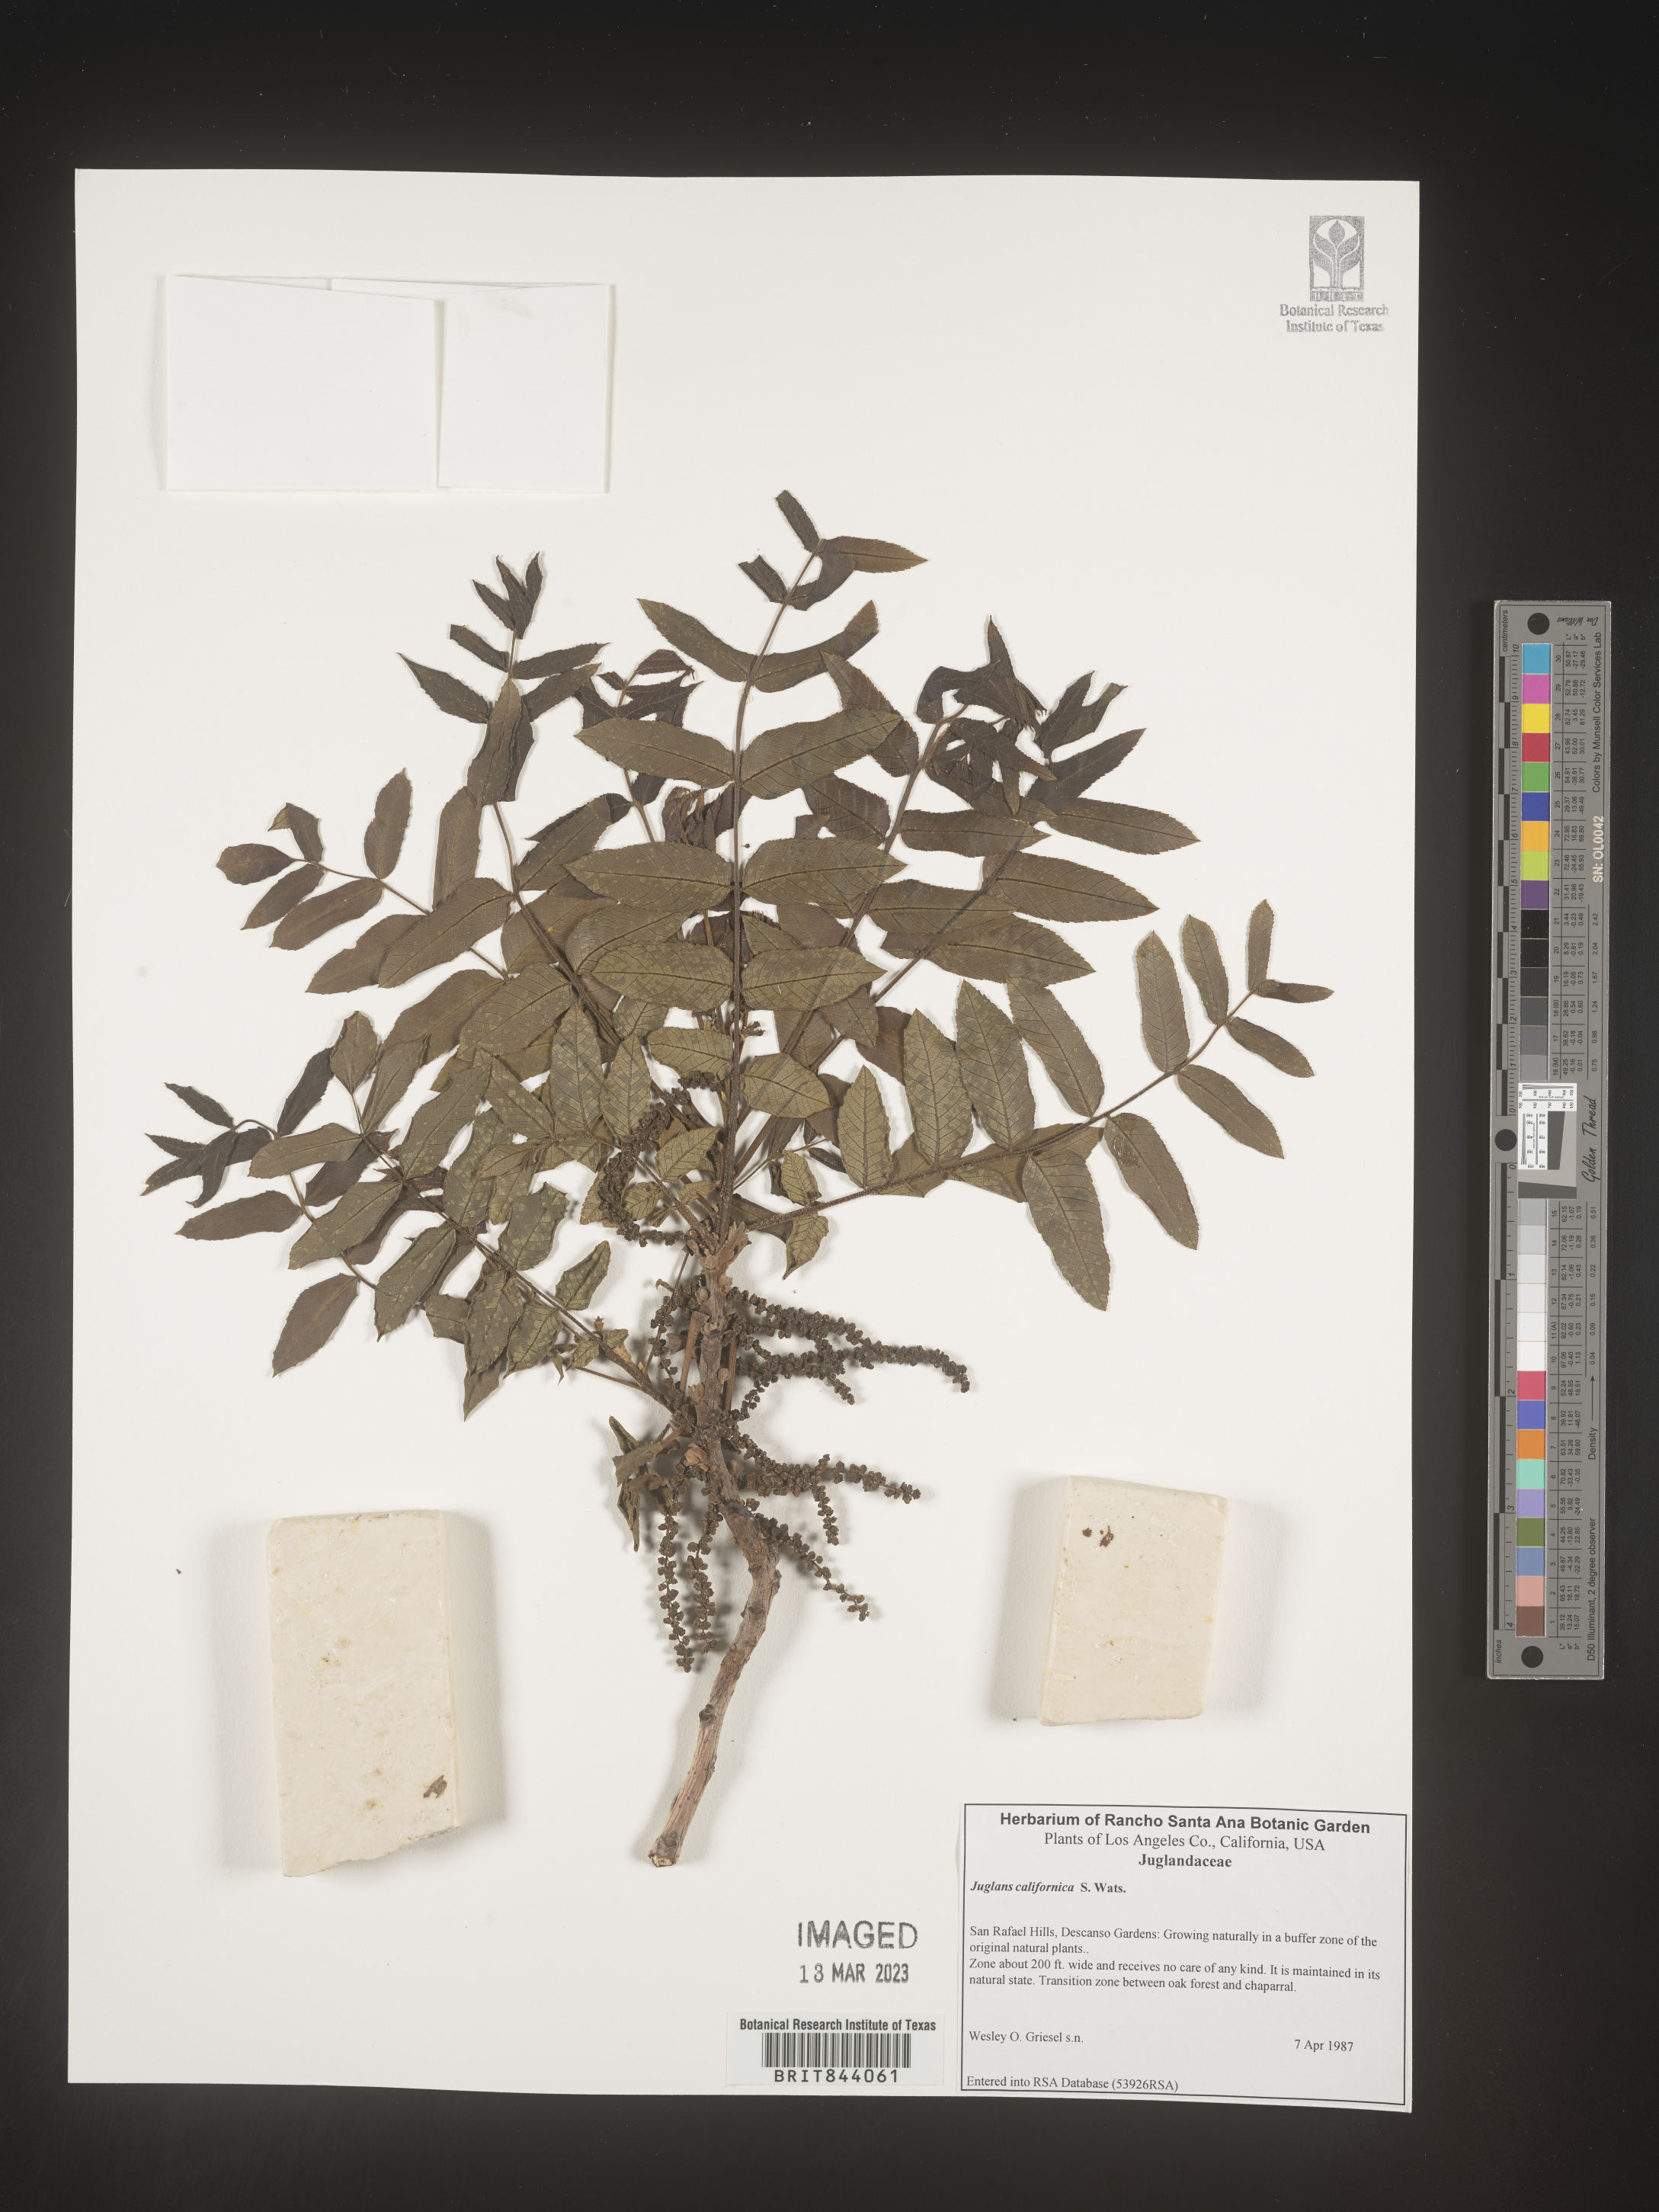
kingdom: Plantae
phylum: Tracheophyta
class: Magnoliopsida
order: Fagales
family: Juglandaceae
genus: Juglans
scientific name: Juglans californica
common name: Southern california black walnut
